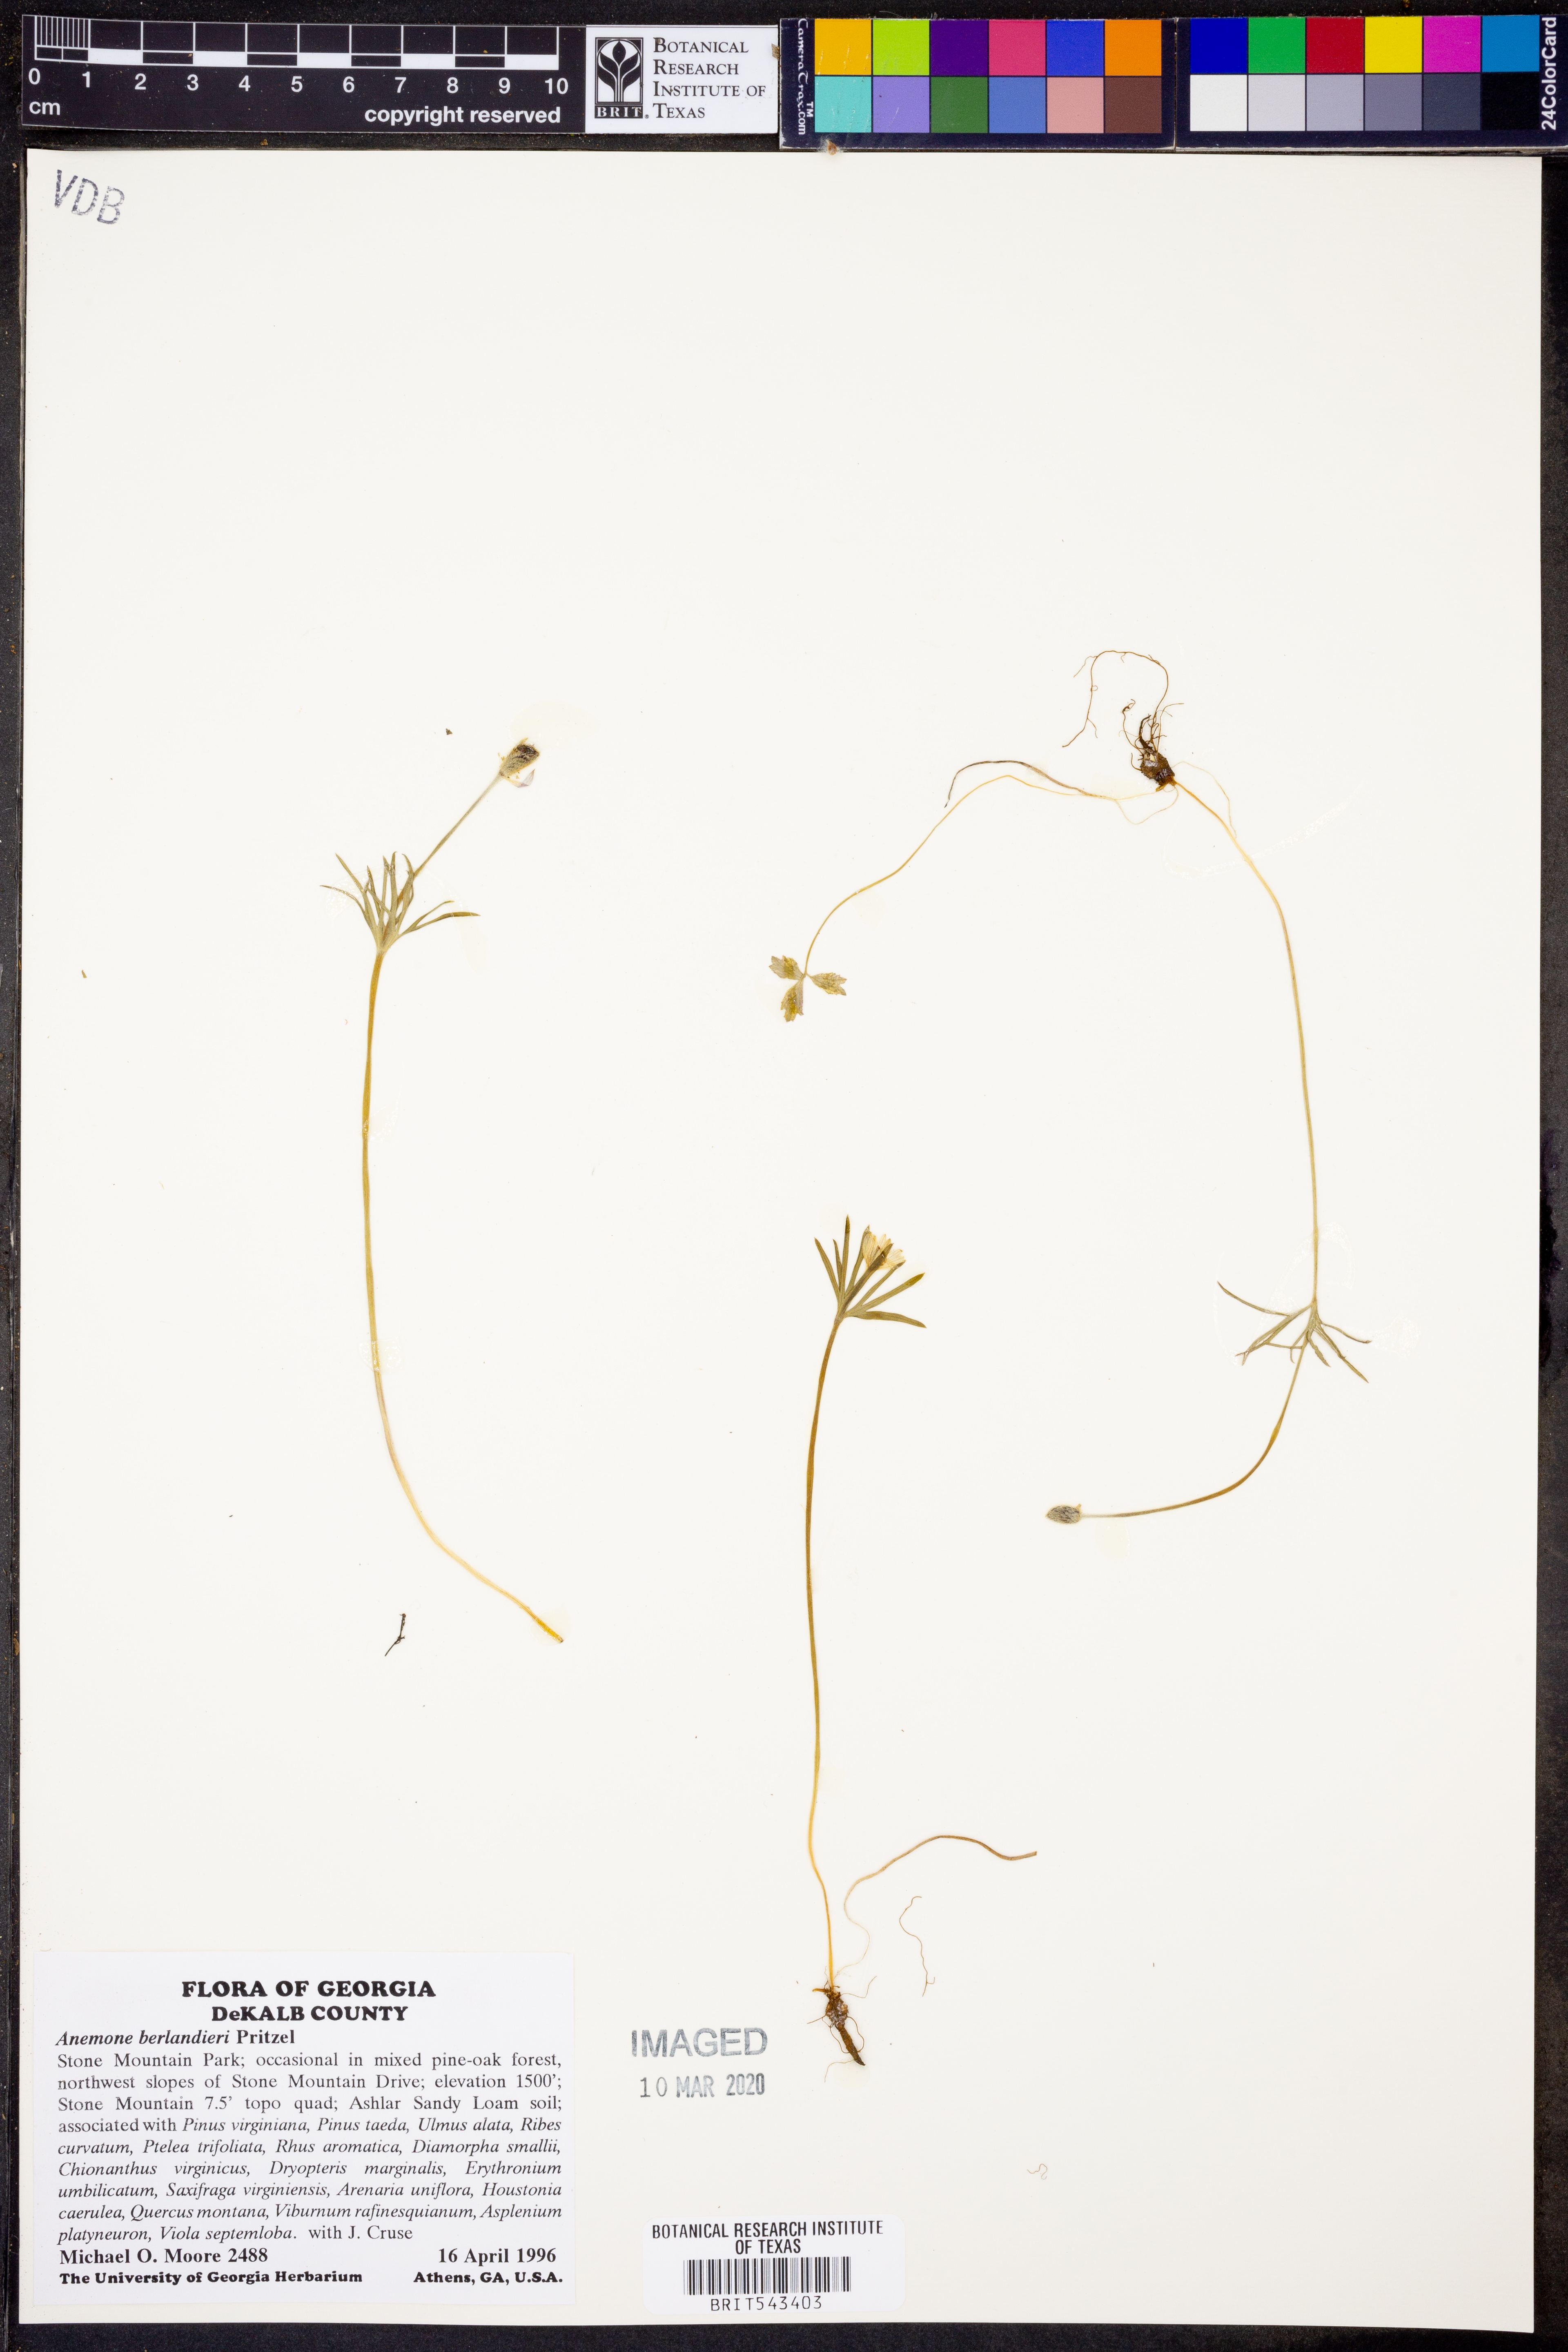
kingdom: Plantae
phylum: Tracheophyta
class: Magnoliopsida
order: Ranunculales
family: Ranunculaceae
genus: Anemone
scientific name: Anemone berlandieri
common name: Ten-petal anemone
